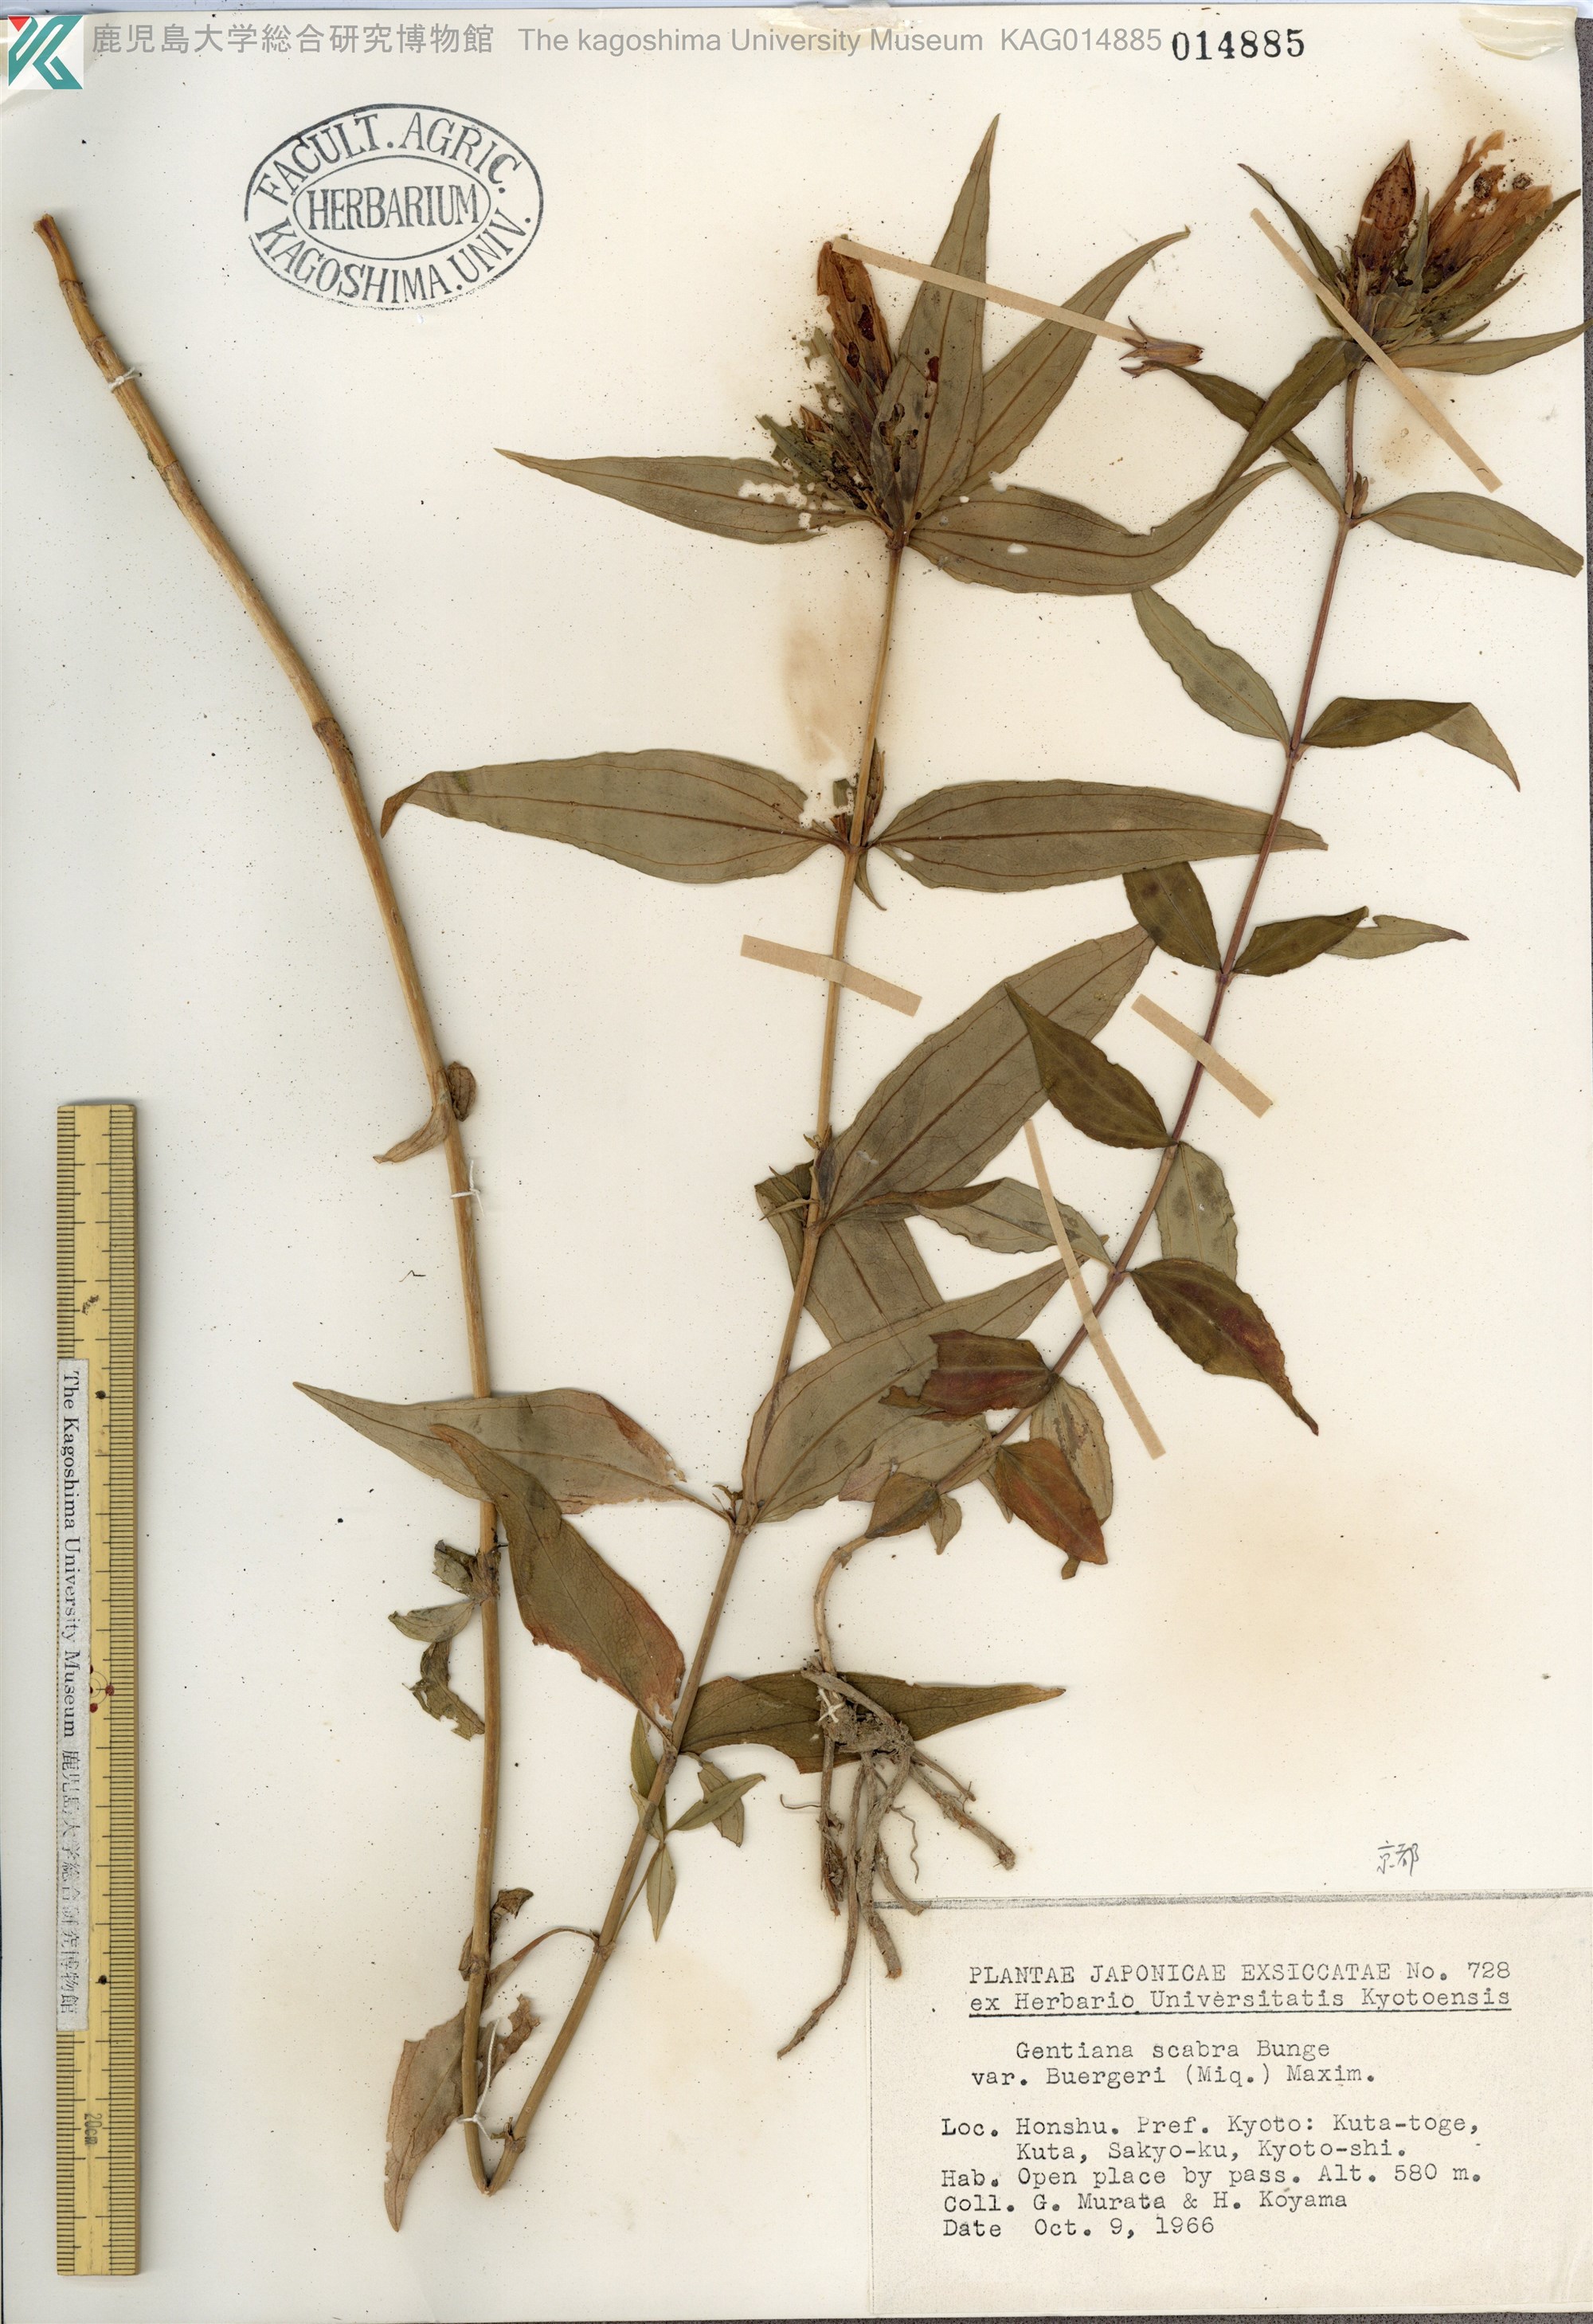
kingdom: Plantae
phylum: Tracheophyta
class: Magnoliopsida
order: Gentianales
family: Gentianaceae
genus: Gentiana
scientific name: Gentiana scabra
